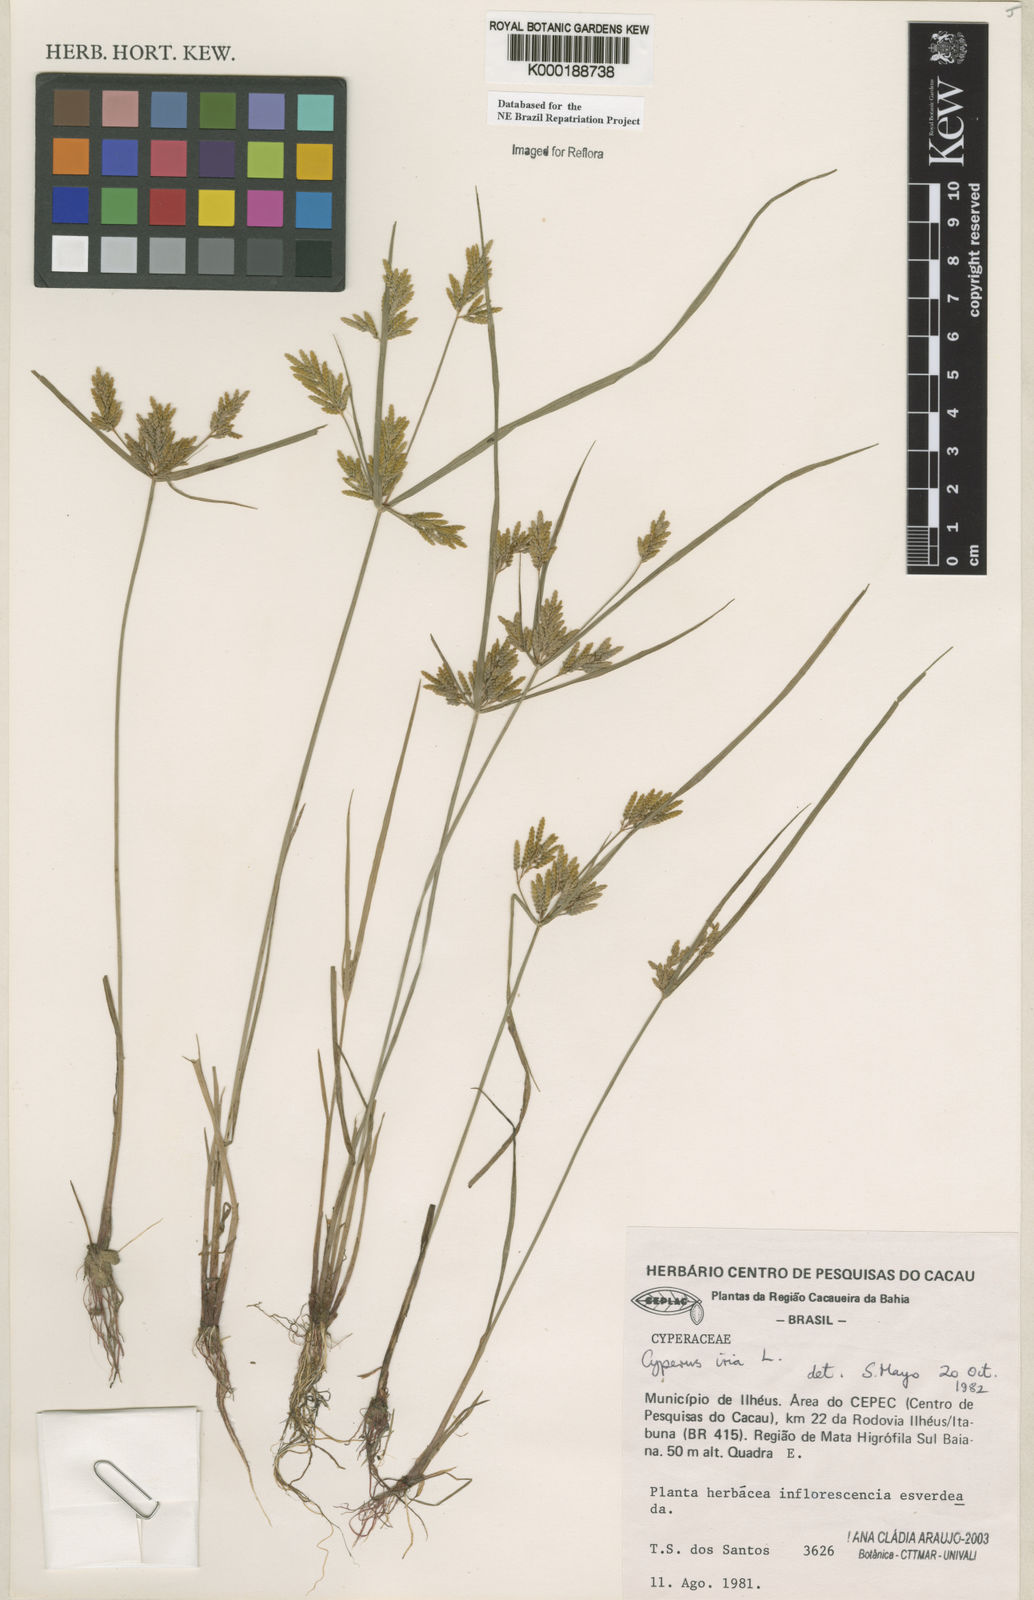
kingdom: Plantae
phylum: Tracheophyta
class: Liliopsida
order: Poales
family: Cyperaceae
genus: Cyperus
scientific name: Cyperus iria
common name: Ricefield flatsedge
